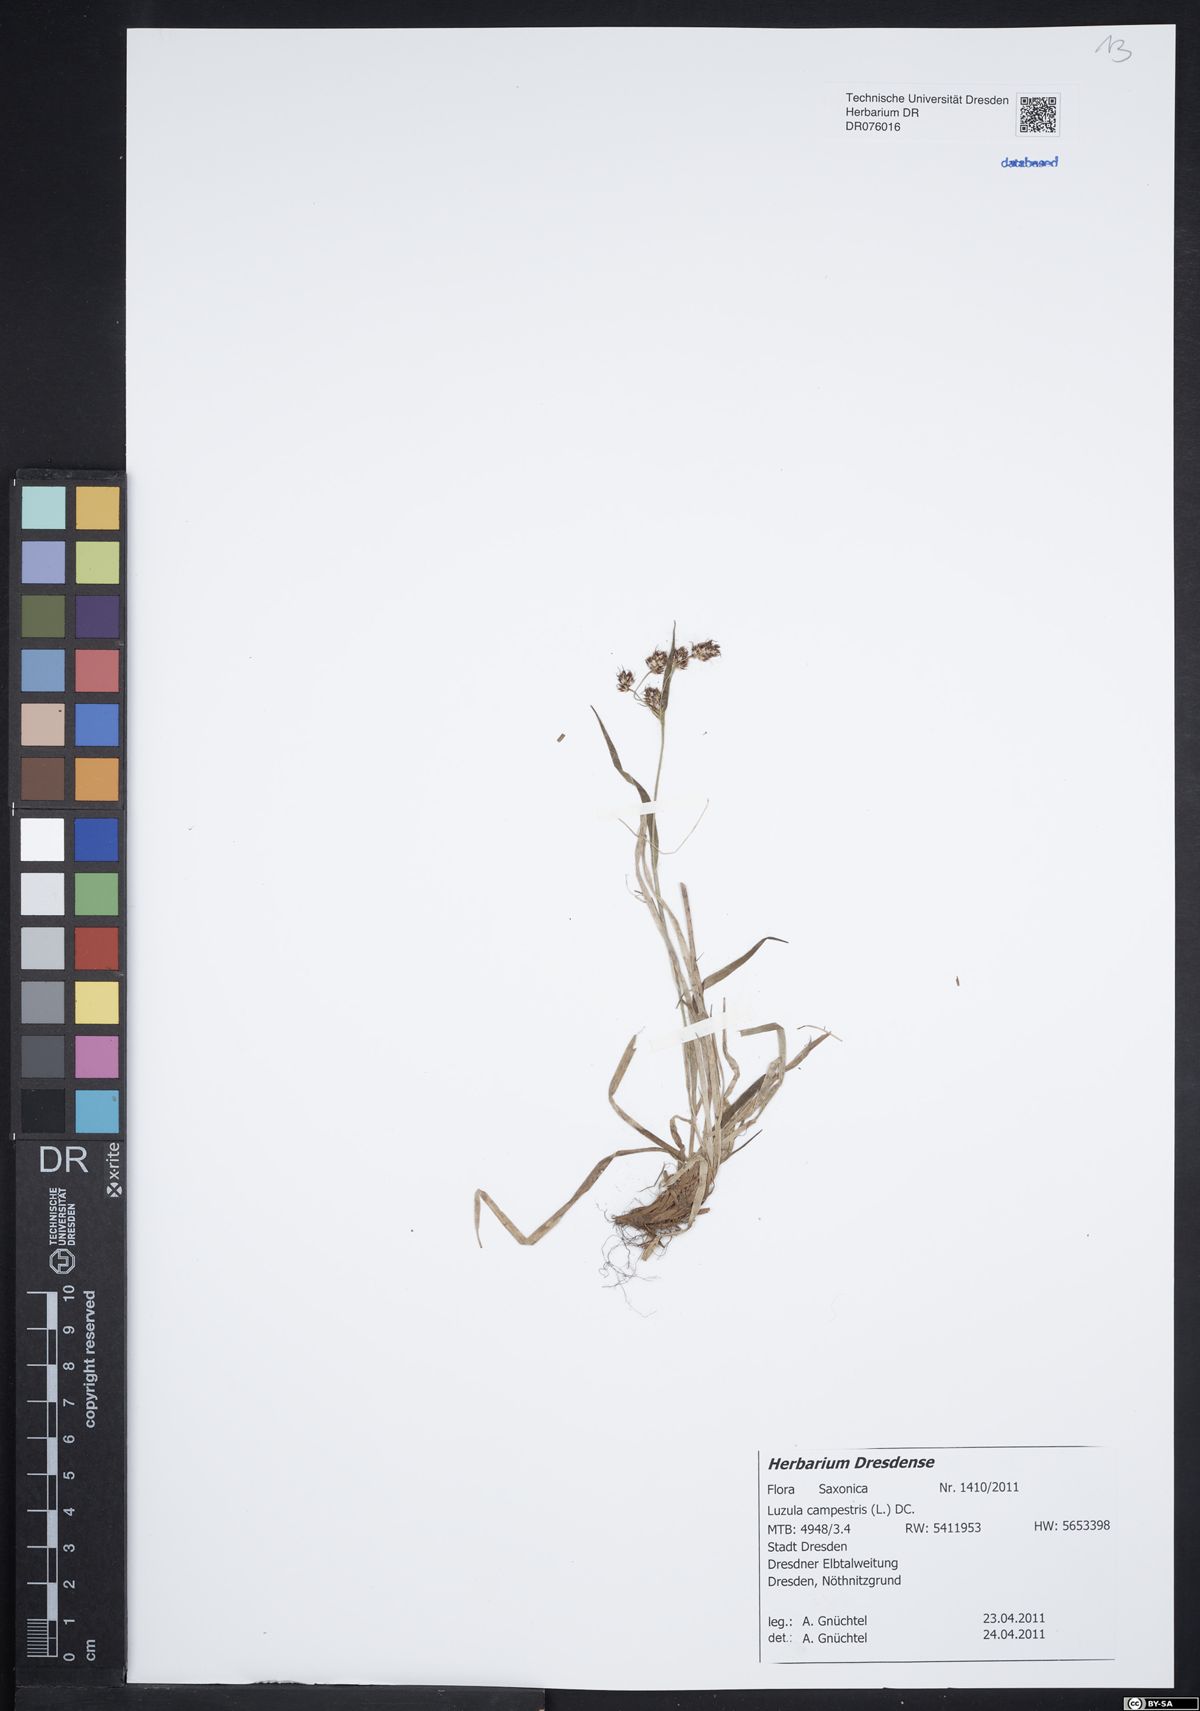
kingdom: Plantae
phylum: Tracheophyta
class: Liliopsida
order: Poales
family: Juncaceae
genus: Luzula
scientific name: Luzula campestris
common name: Field wood-rush
